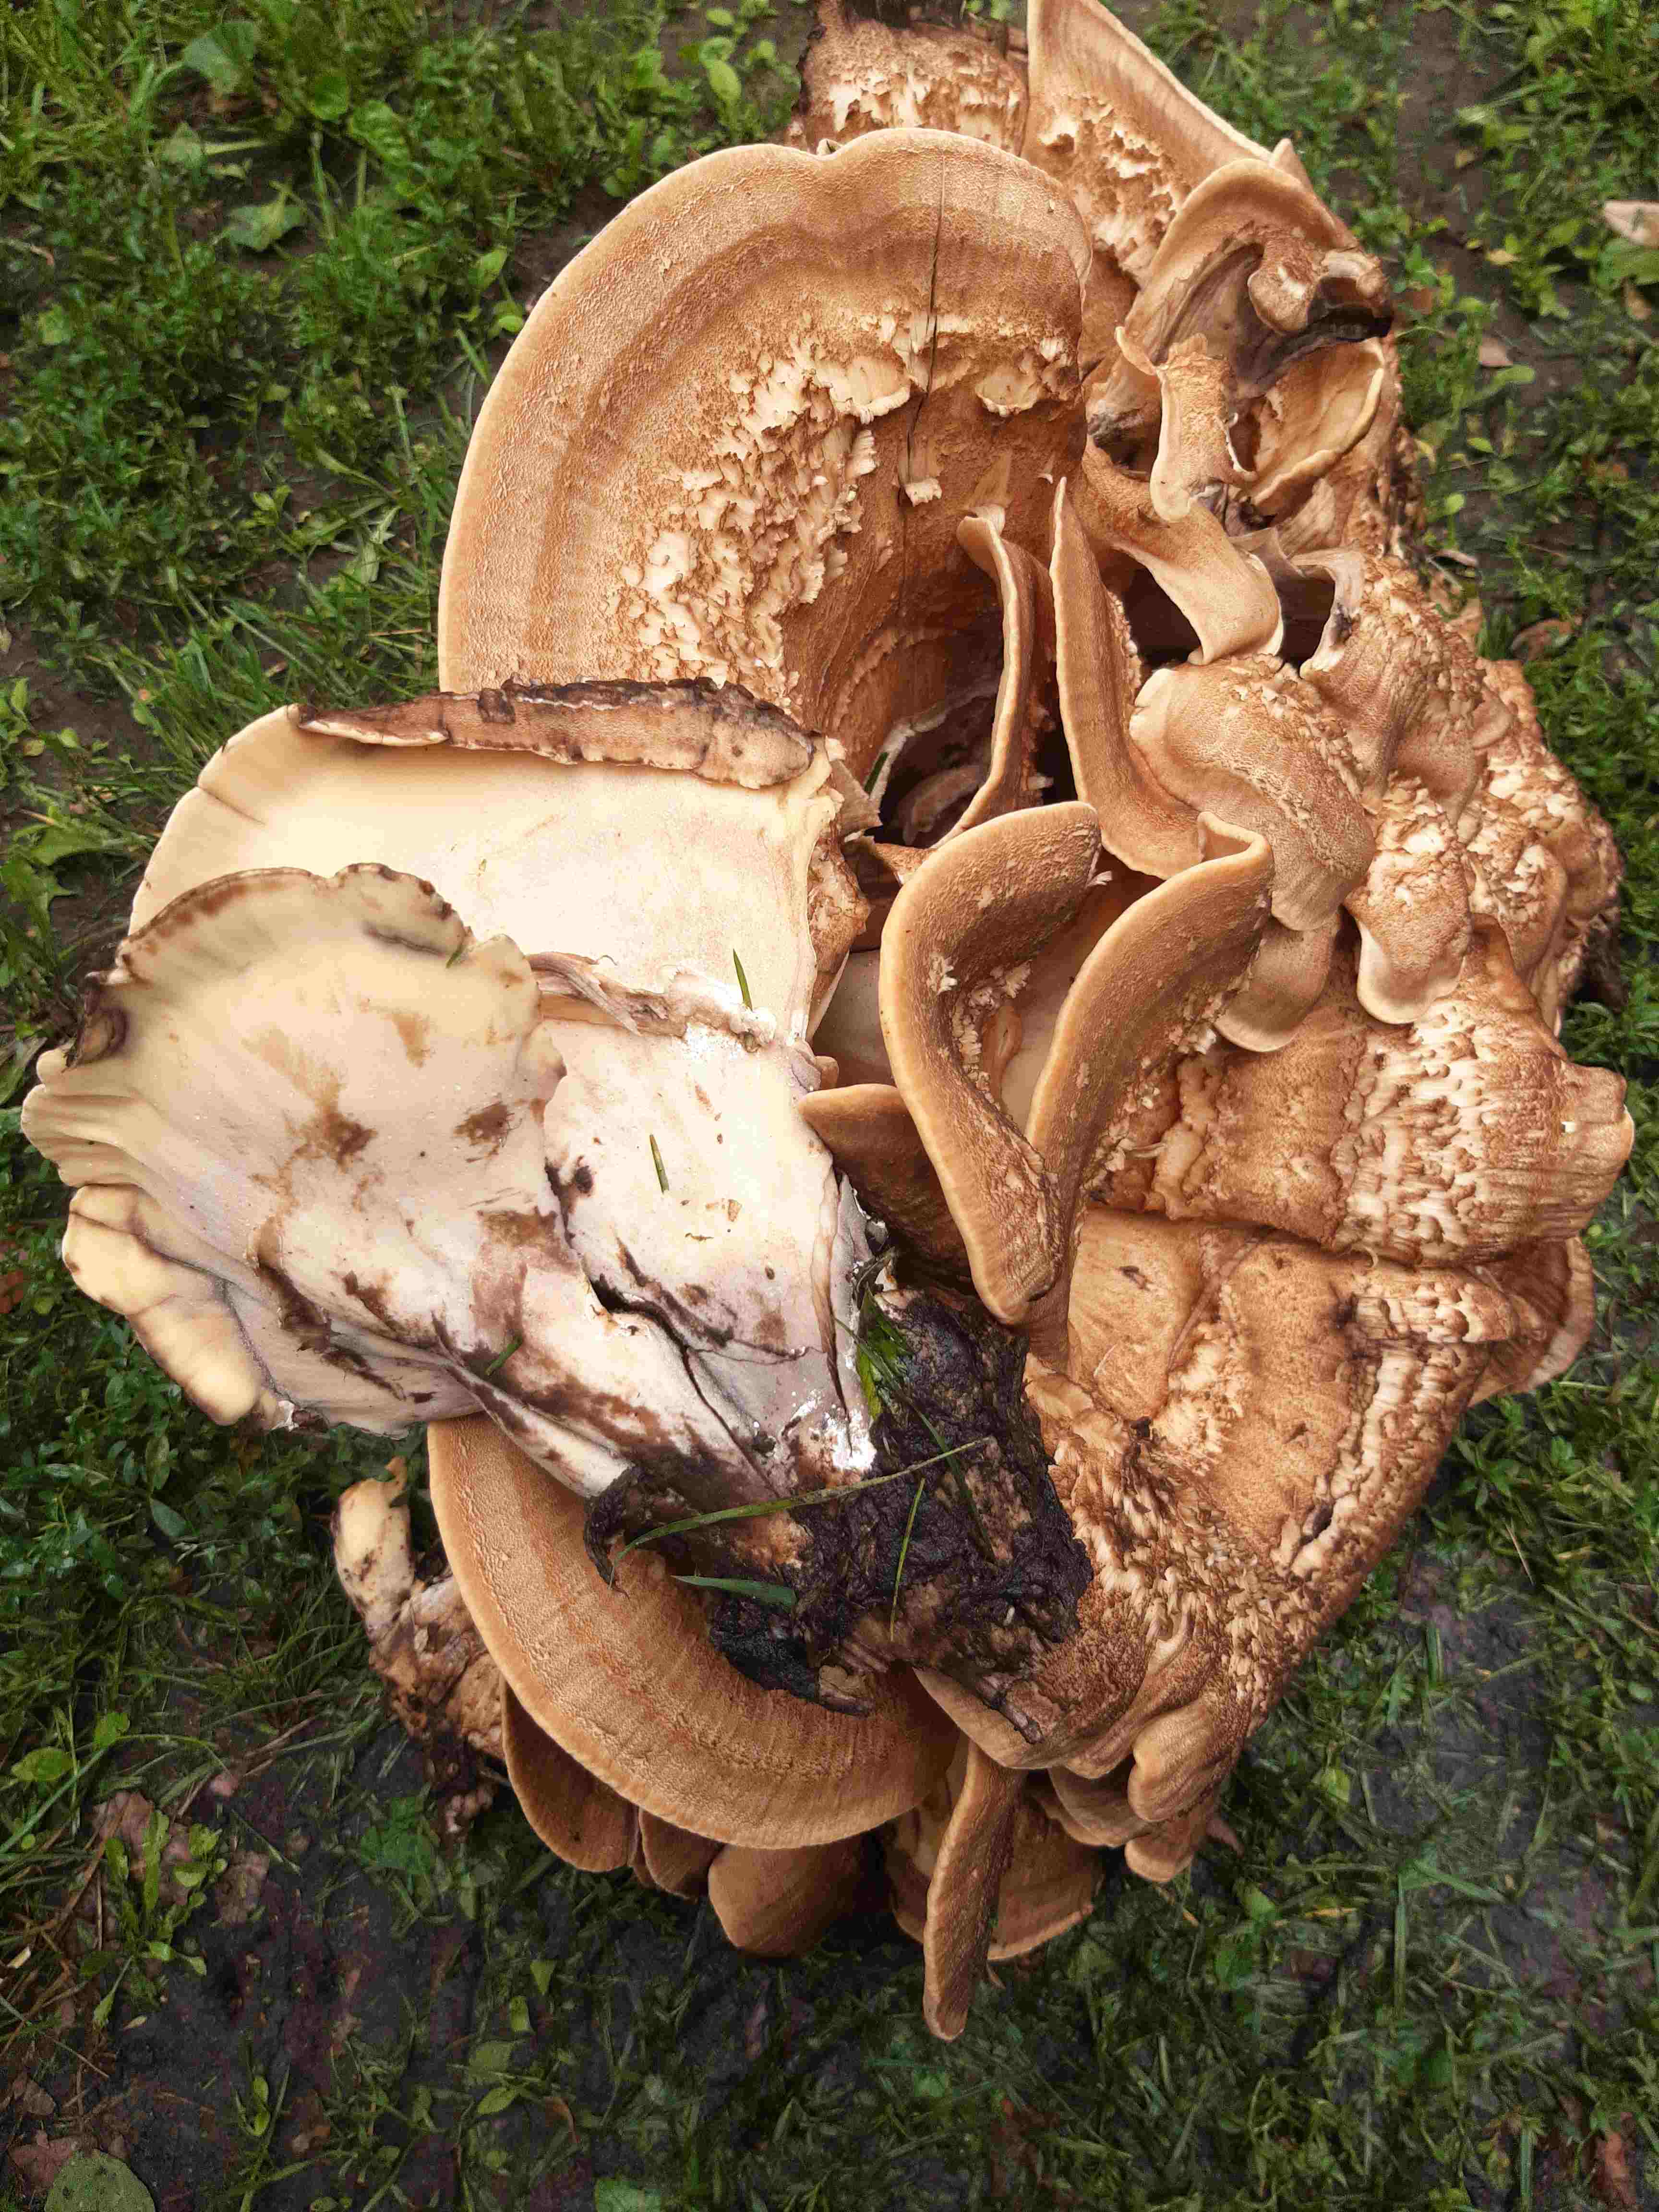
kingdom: Fungi
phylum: Basidiomycota
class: Agaricomycetes
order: Polyporales
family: Meripilaceae
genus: Meripilus
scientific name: Meripilus giganteus
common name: kæmpeporesvamp
